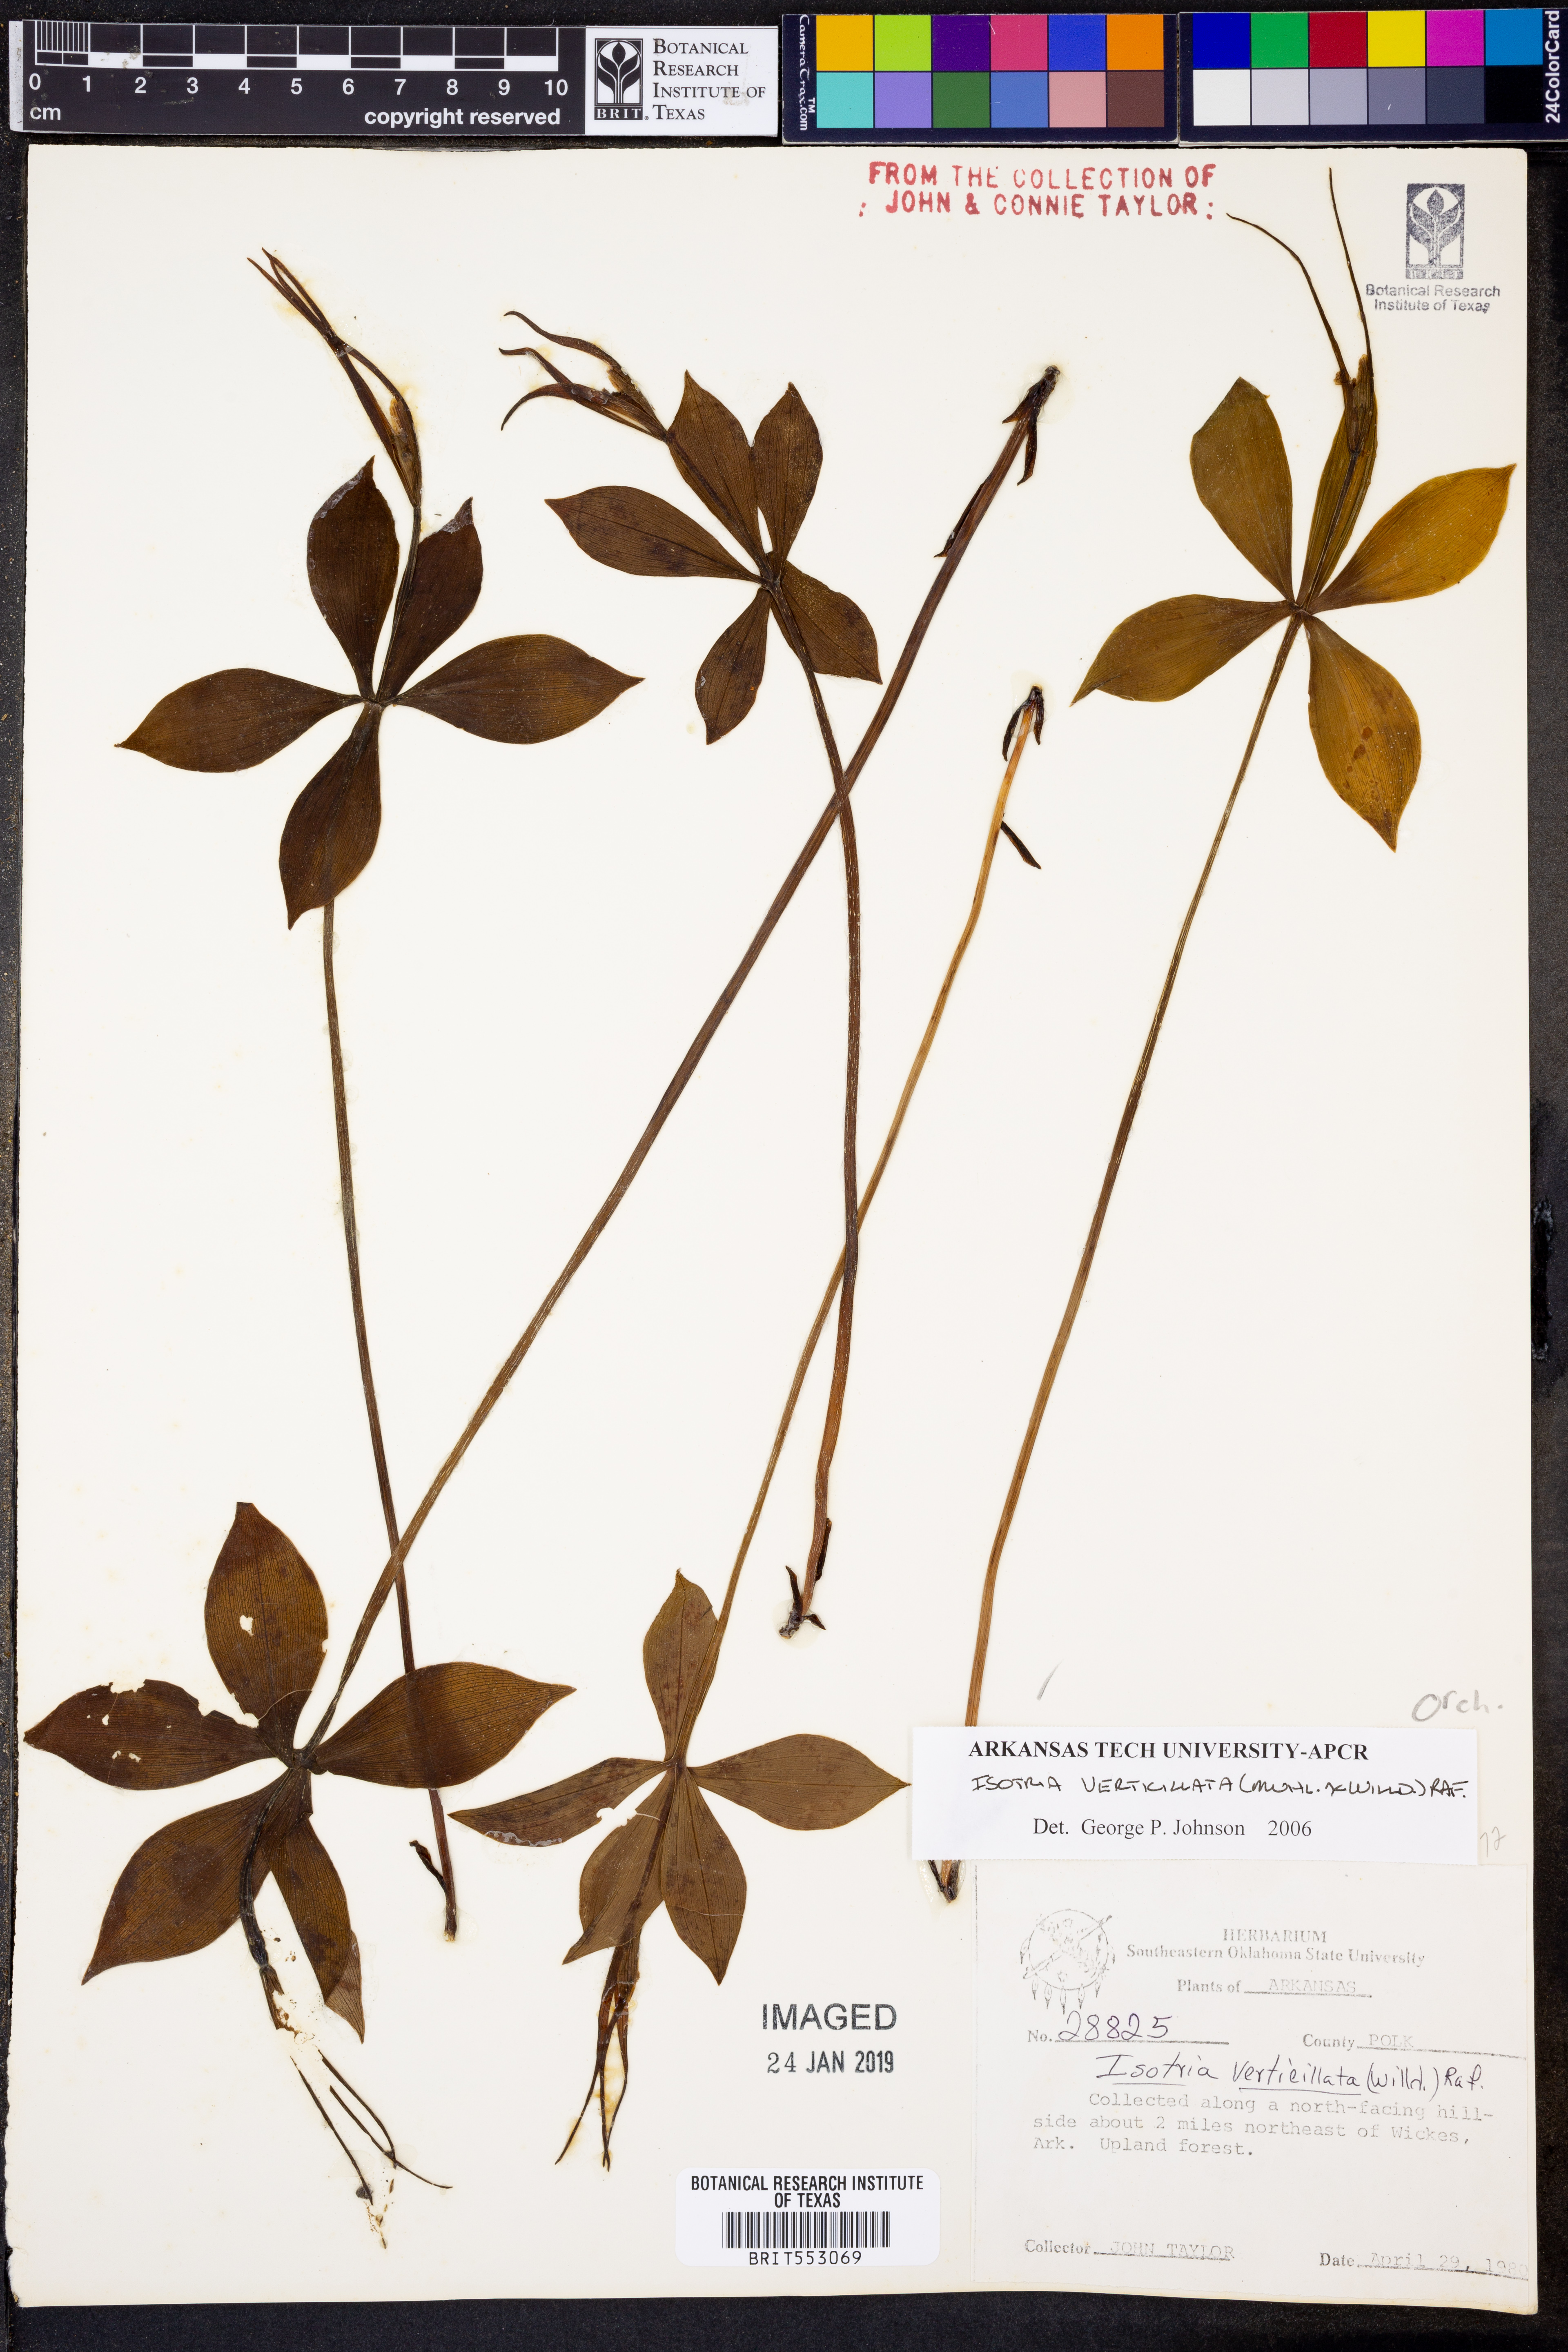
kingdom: Plantae
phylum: Tracheophyta
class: Liliopsida
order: Asparagales
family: Orchidaceae
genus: Isotria
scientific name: Isotria verticillata
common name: Large whorled pogonia
